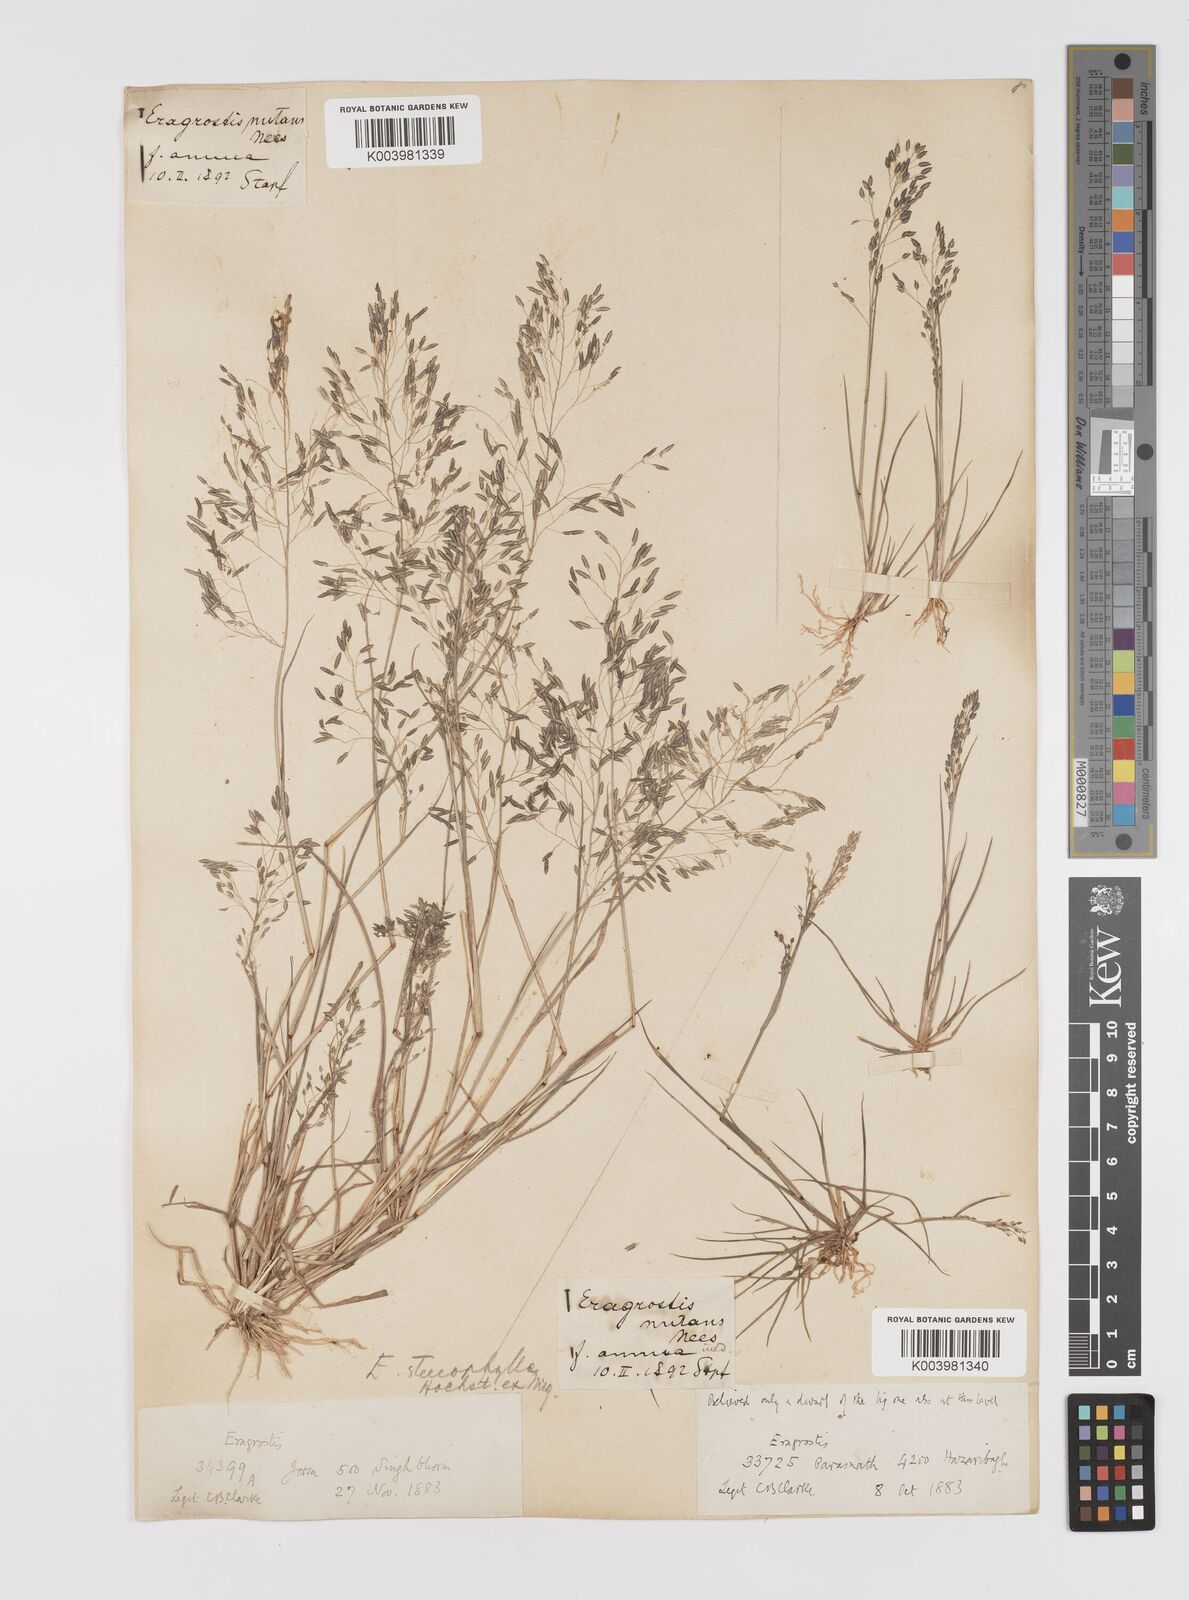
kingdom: Plantae
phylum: Tracheophyta
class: Liliopsida
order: Poales
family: Poaceae
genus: Eragrostis
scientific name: Eragrostis gangetica
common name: Slimflower lovegrass
